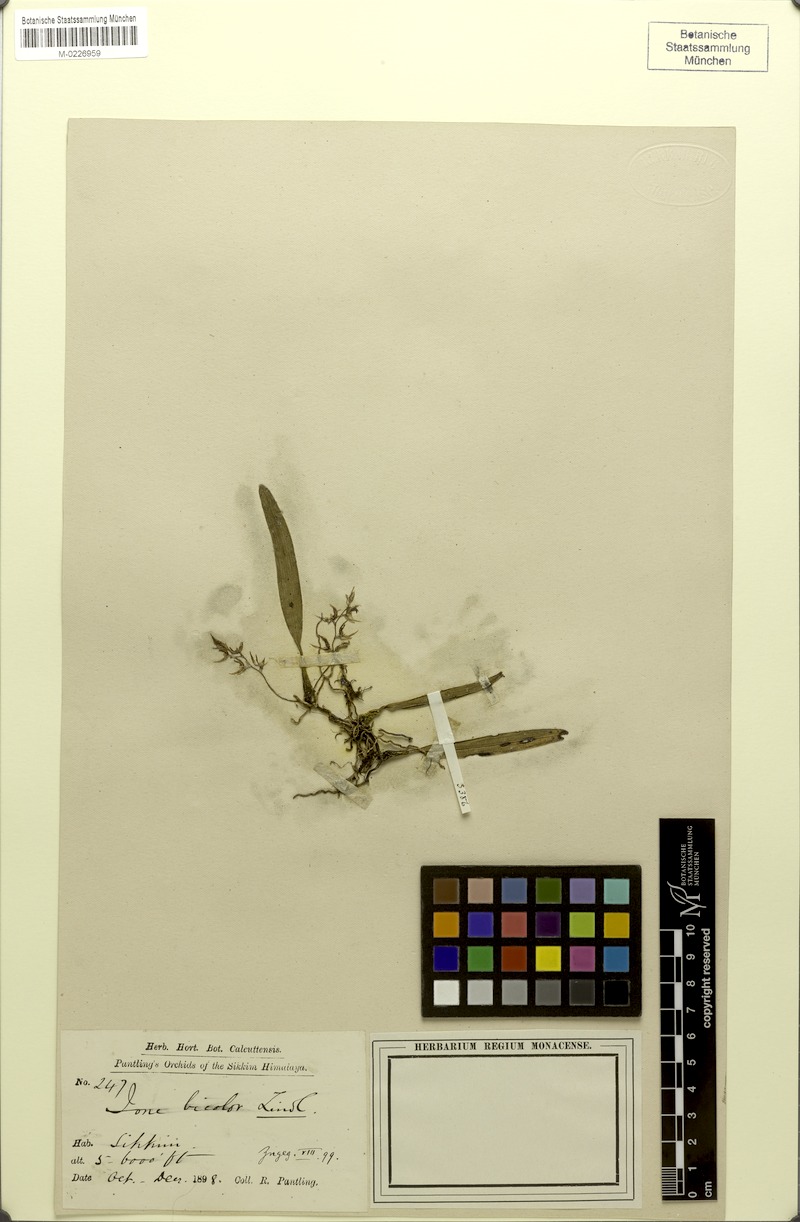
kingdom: Plantae
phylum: Tracheophyta
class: Liliopsida
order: Asparagales
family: Orchidaceae
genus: Bulbophyllum
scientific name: Bulbophyllum roseopictum
